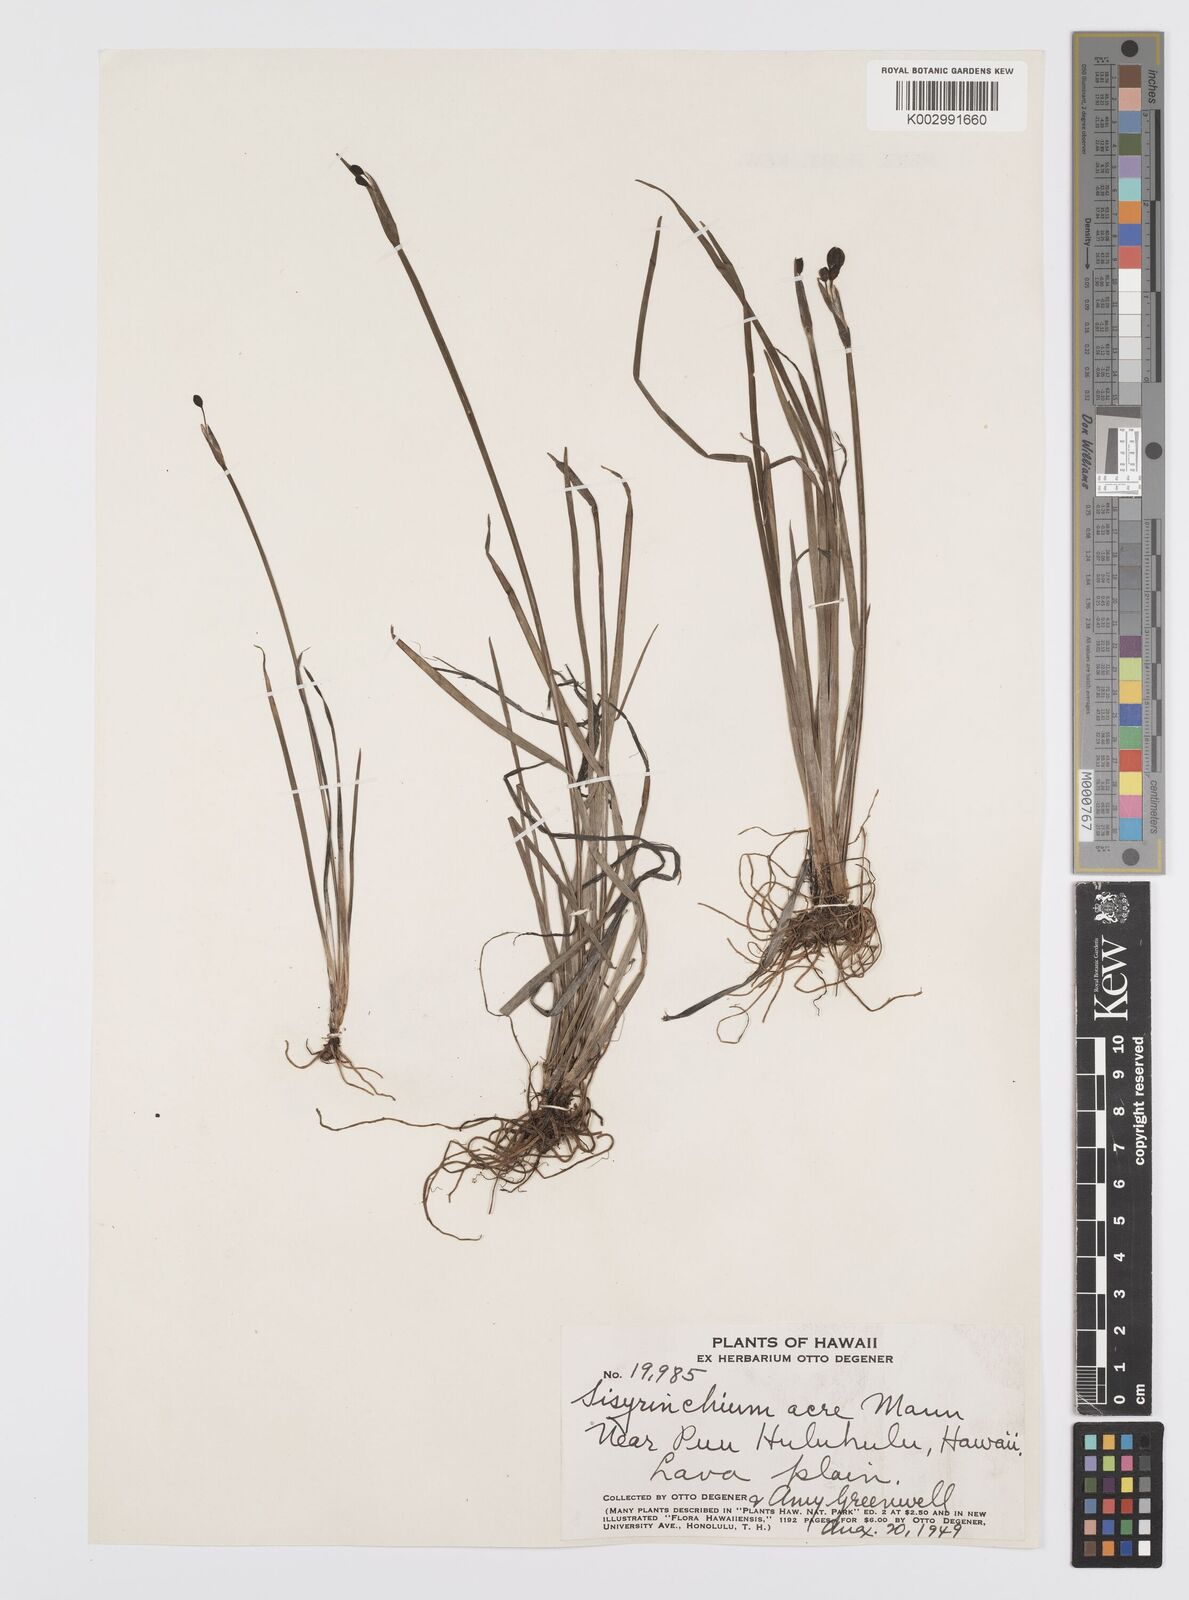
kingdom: Plantae
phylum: Tracheophyta
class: Liliopsida
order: Asparagales
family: Iridaceae
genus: Sisyrinchium
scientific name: Sisyrinchium acre
